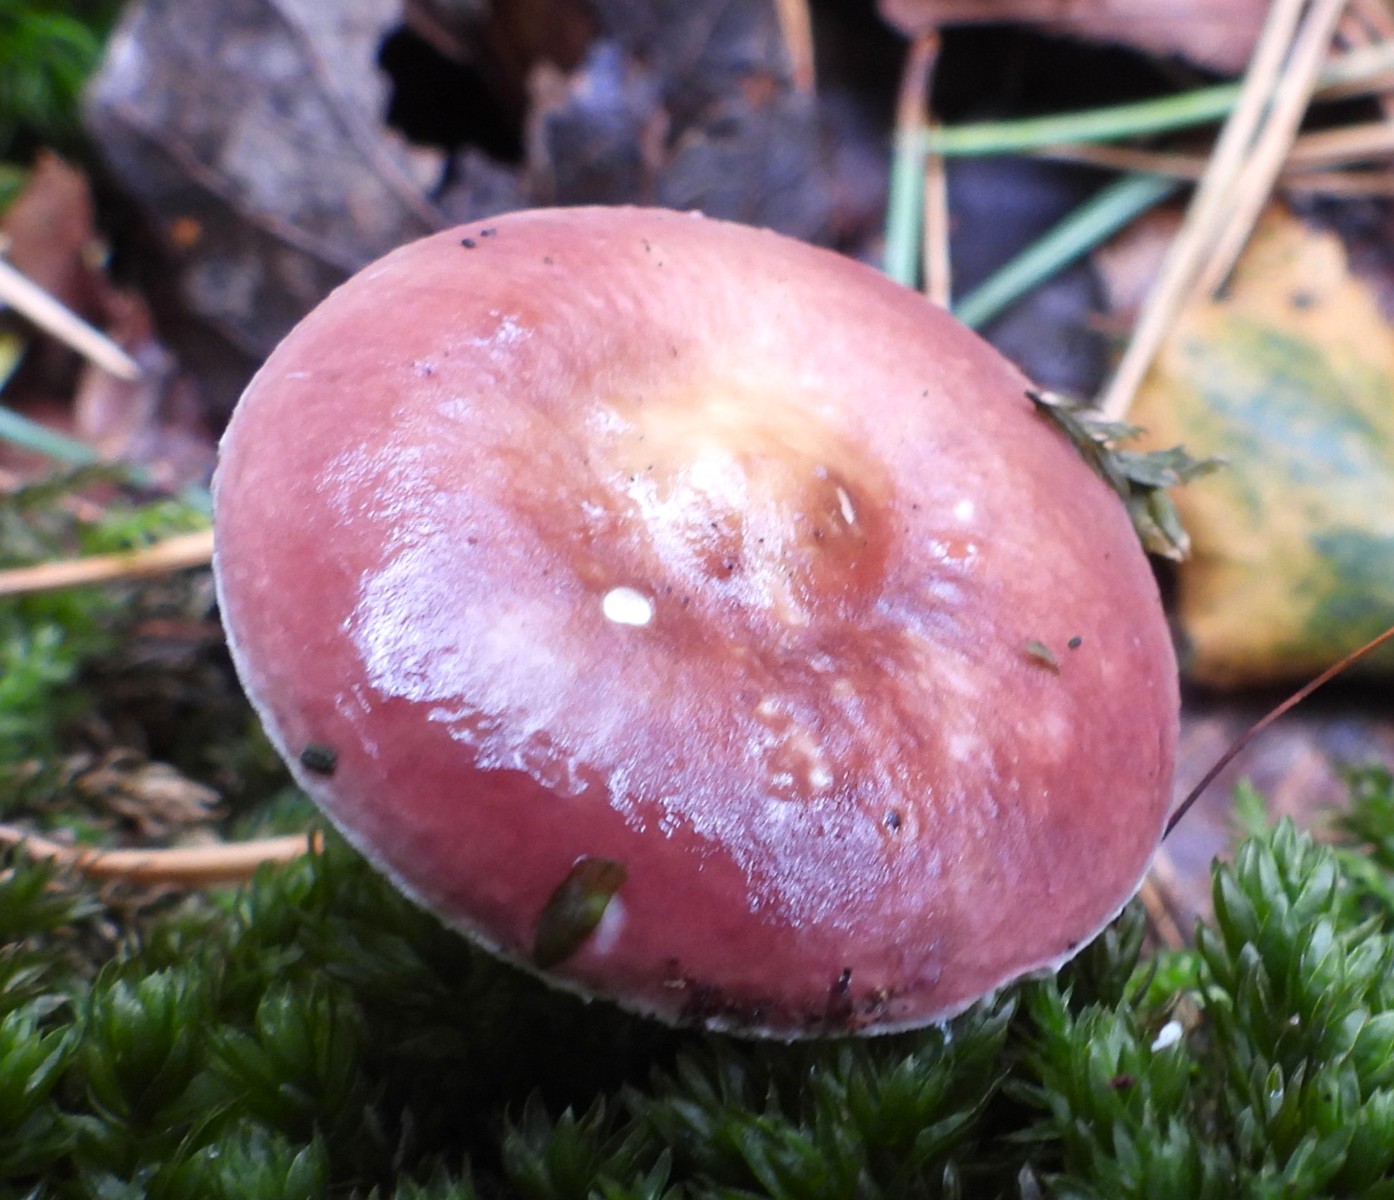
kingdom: Fungi
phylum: Basidiomycota
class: Agaricomycetes
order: Russulales
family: Russulaceae
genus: Russula
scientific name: Russula vesca
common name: spiselig skørhat
